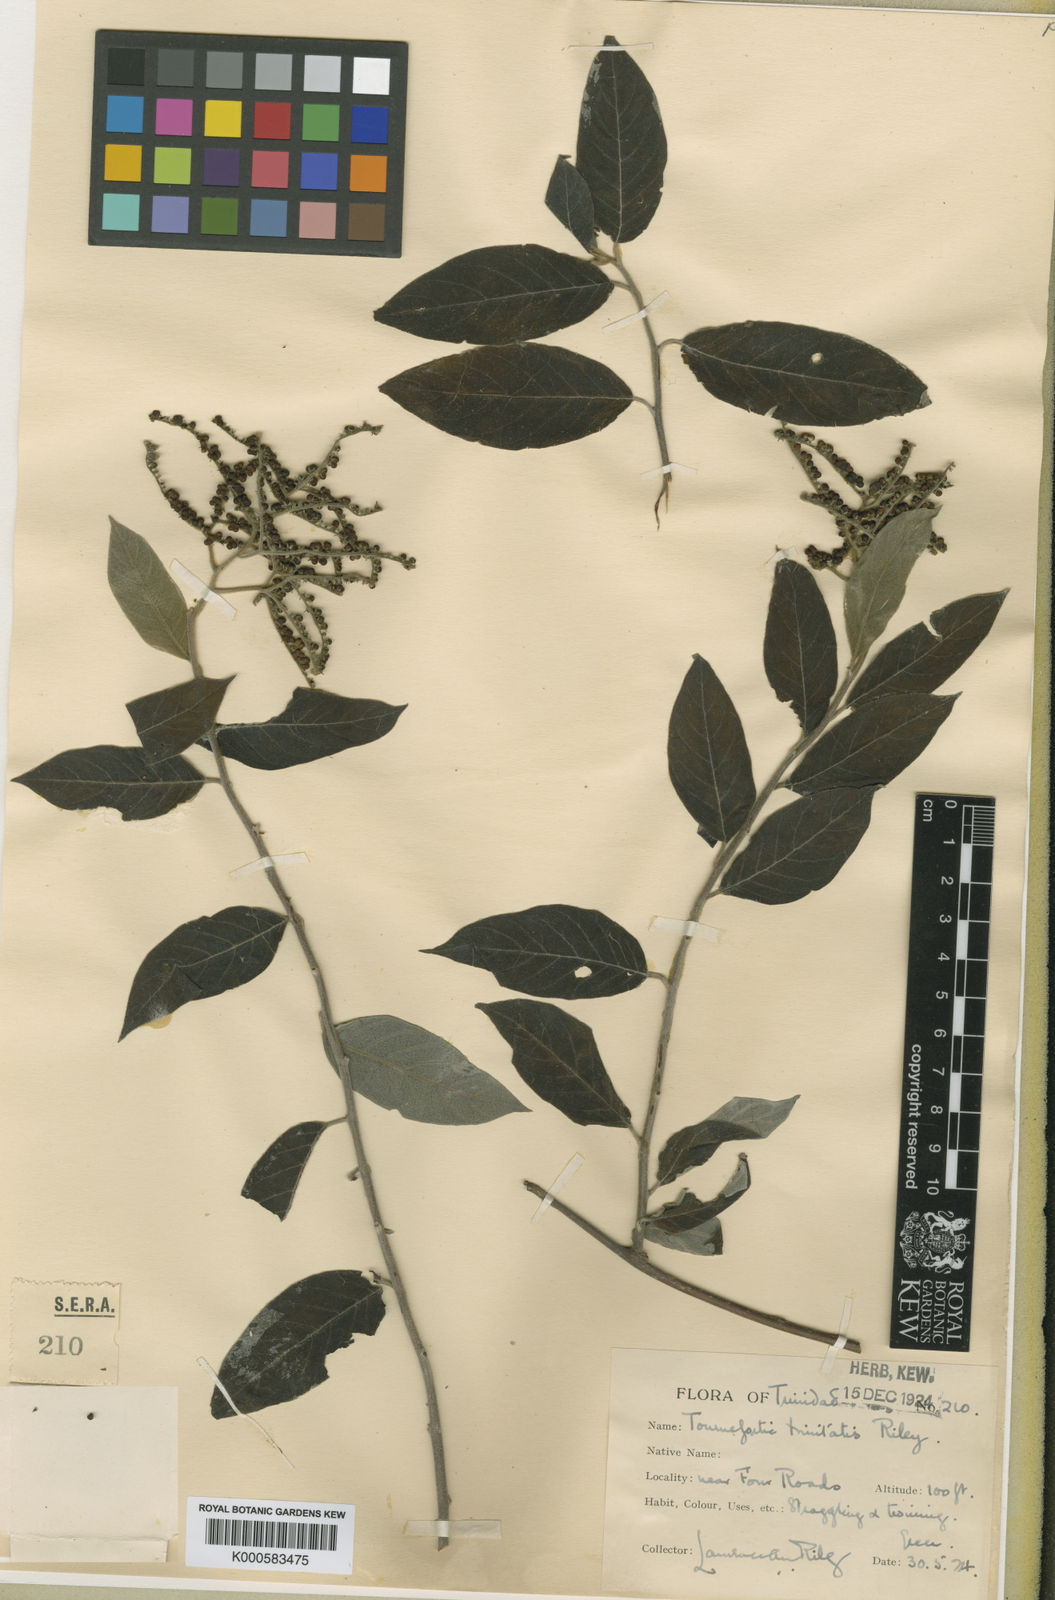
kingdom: Plantae
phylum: Tracheophyta
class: Magnoliopsida
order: Boraginales
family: Heliotropiaceae
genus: Myriopus
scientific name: Myriopus volubilis
